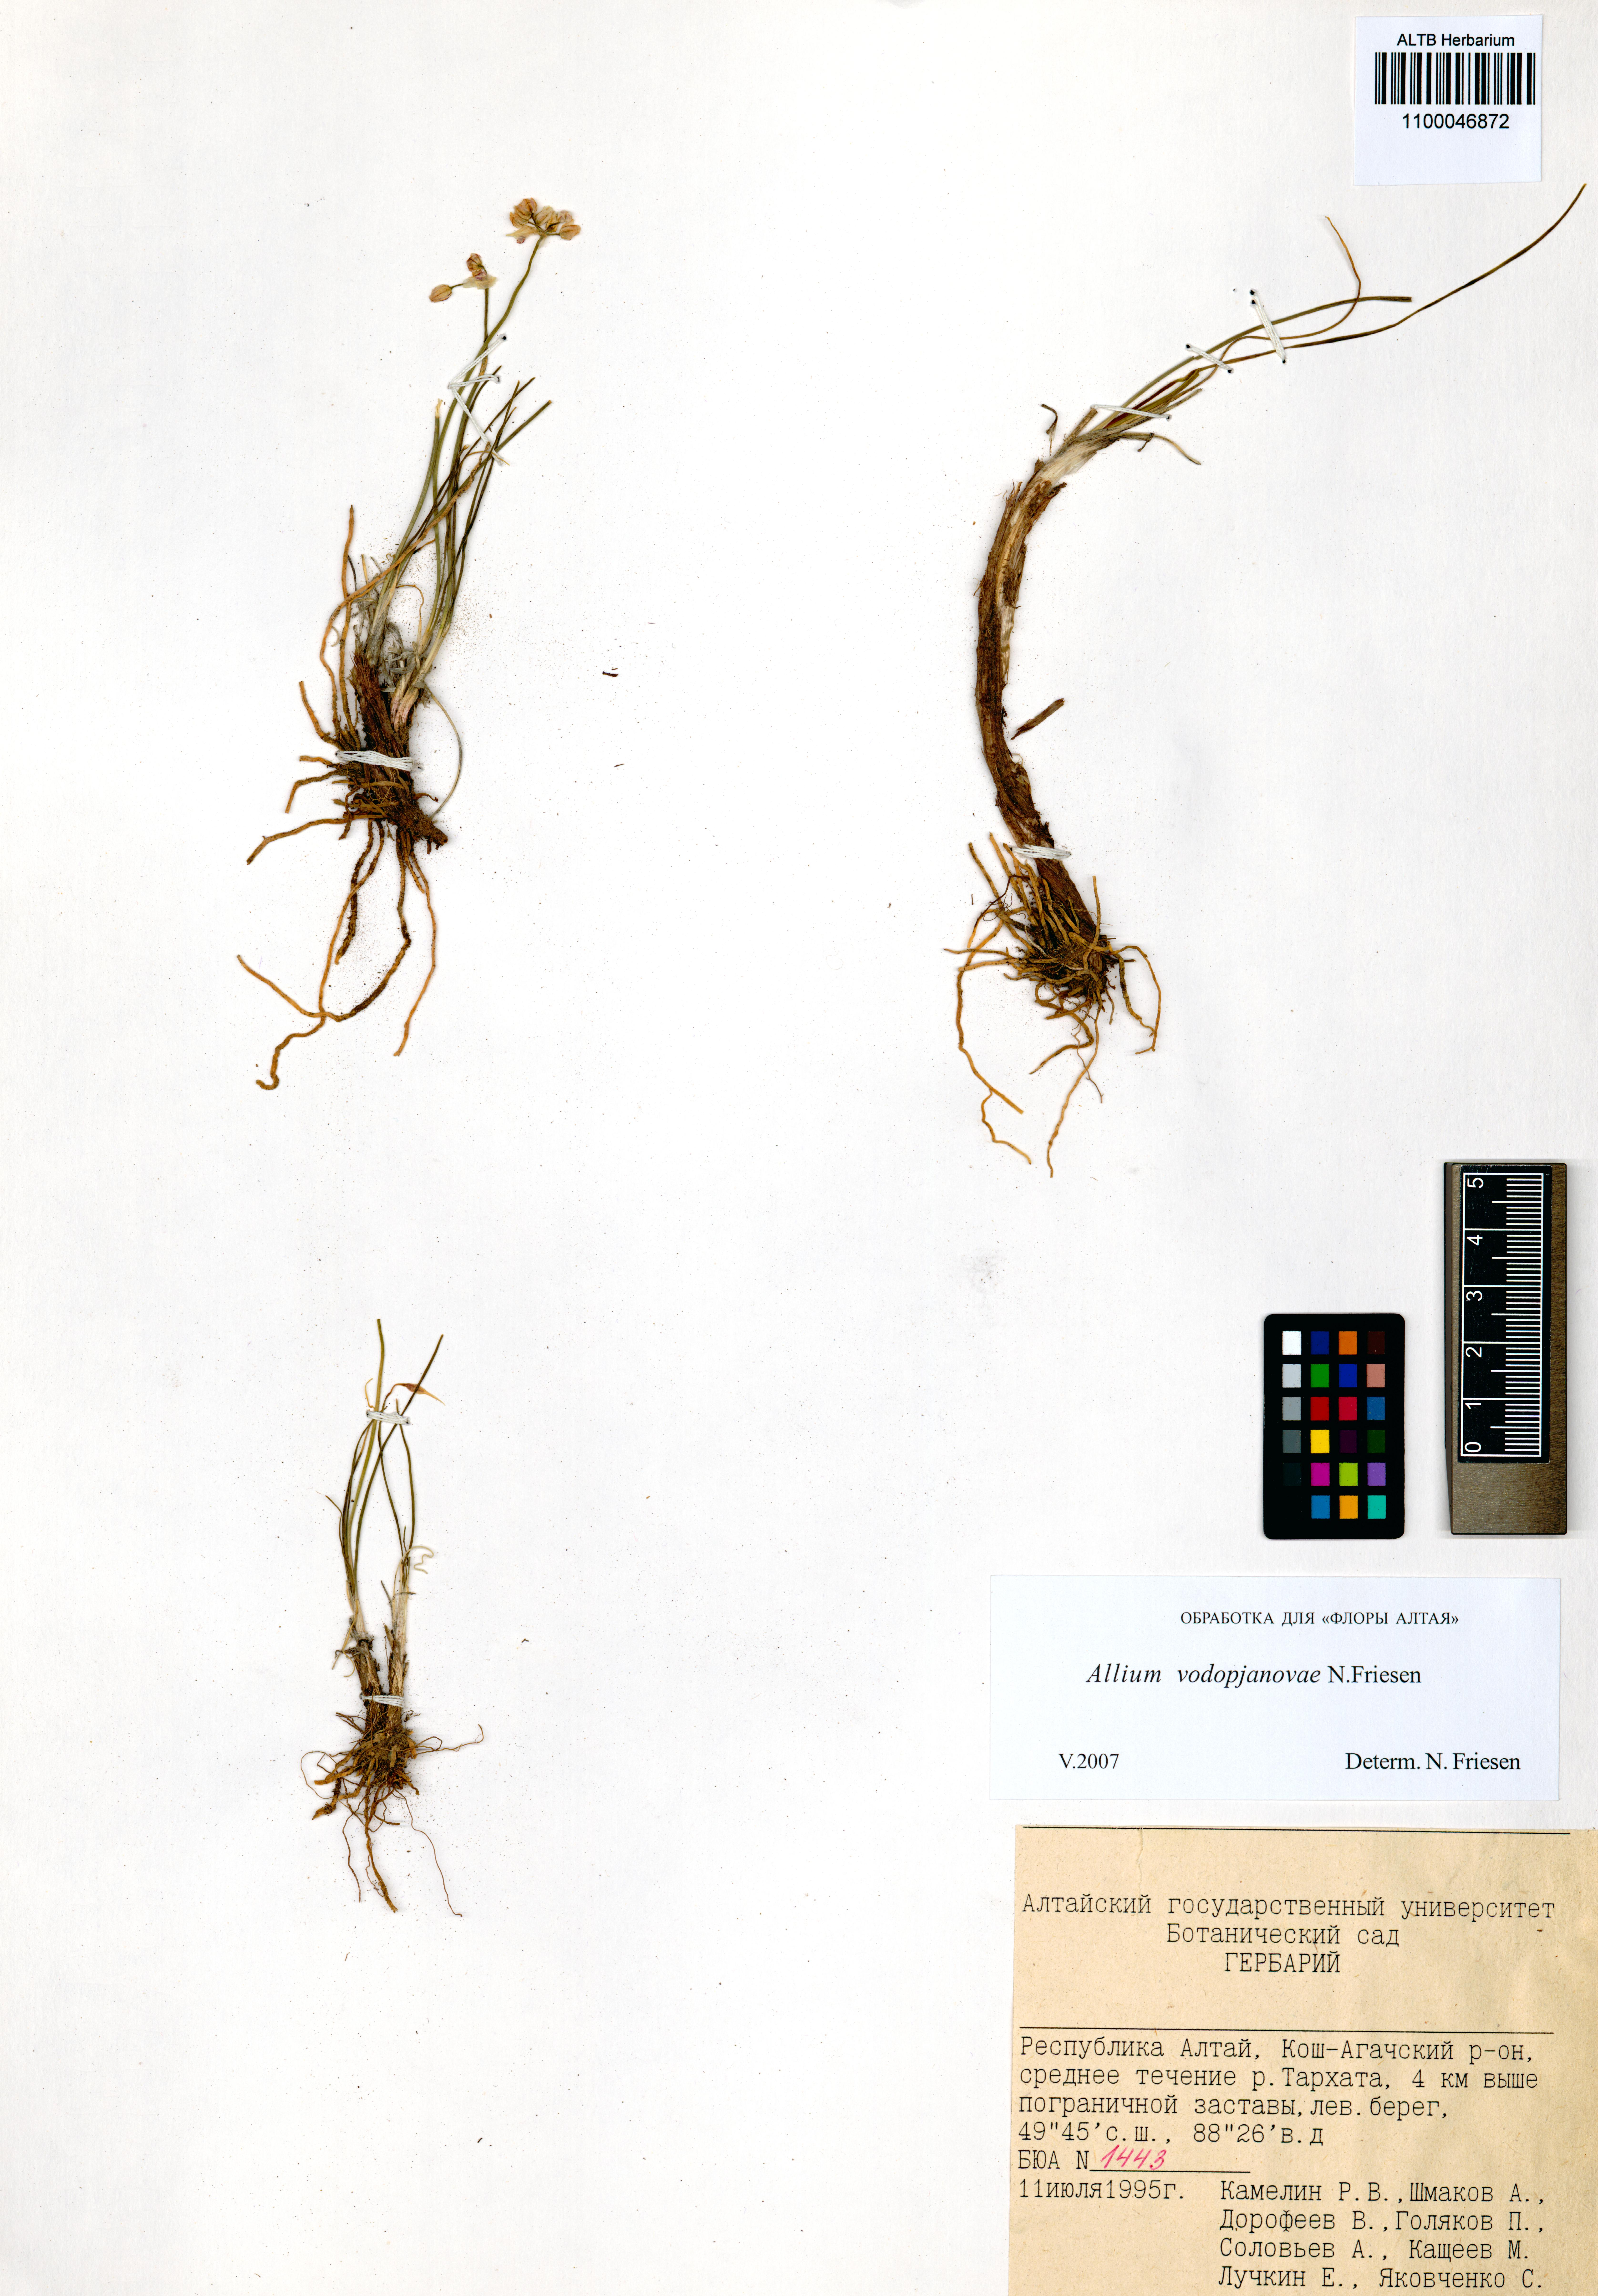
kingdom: Plantae
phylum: Tracheophyta
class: Liliopsida
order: Asparagales
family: Amaryllidaceae
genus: Allium
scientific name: Allium vodopjanovae
